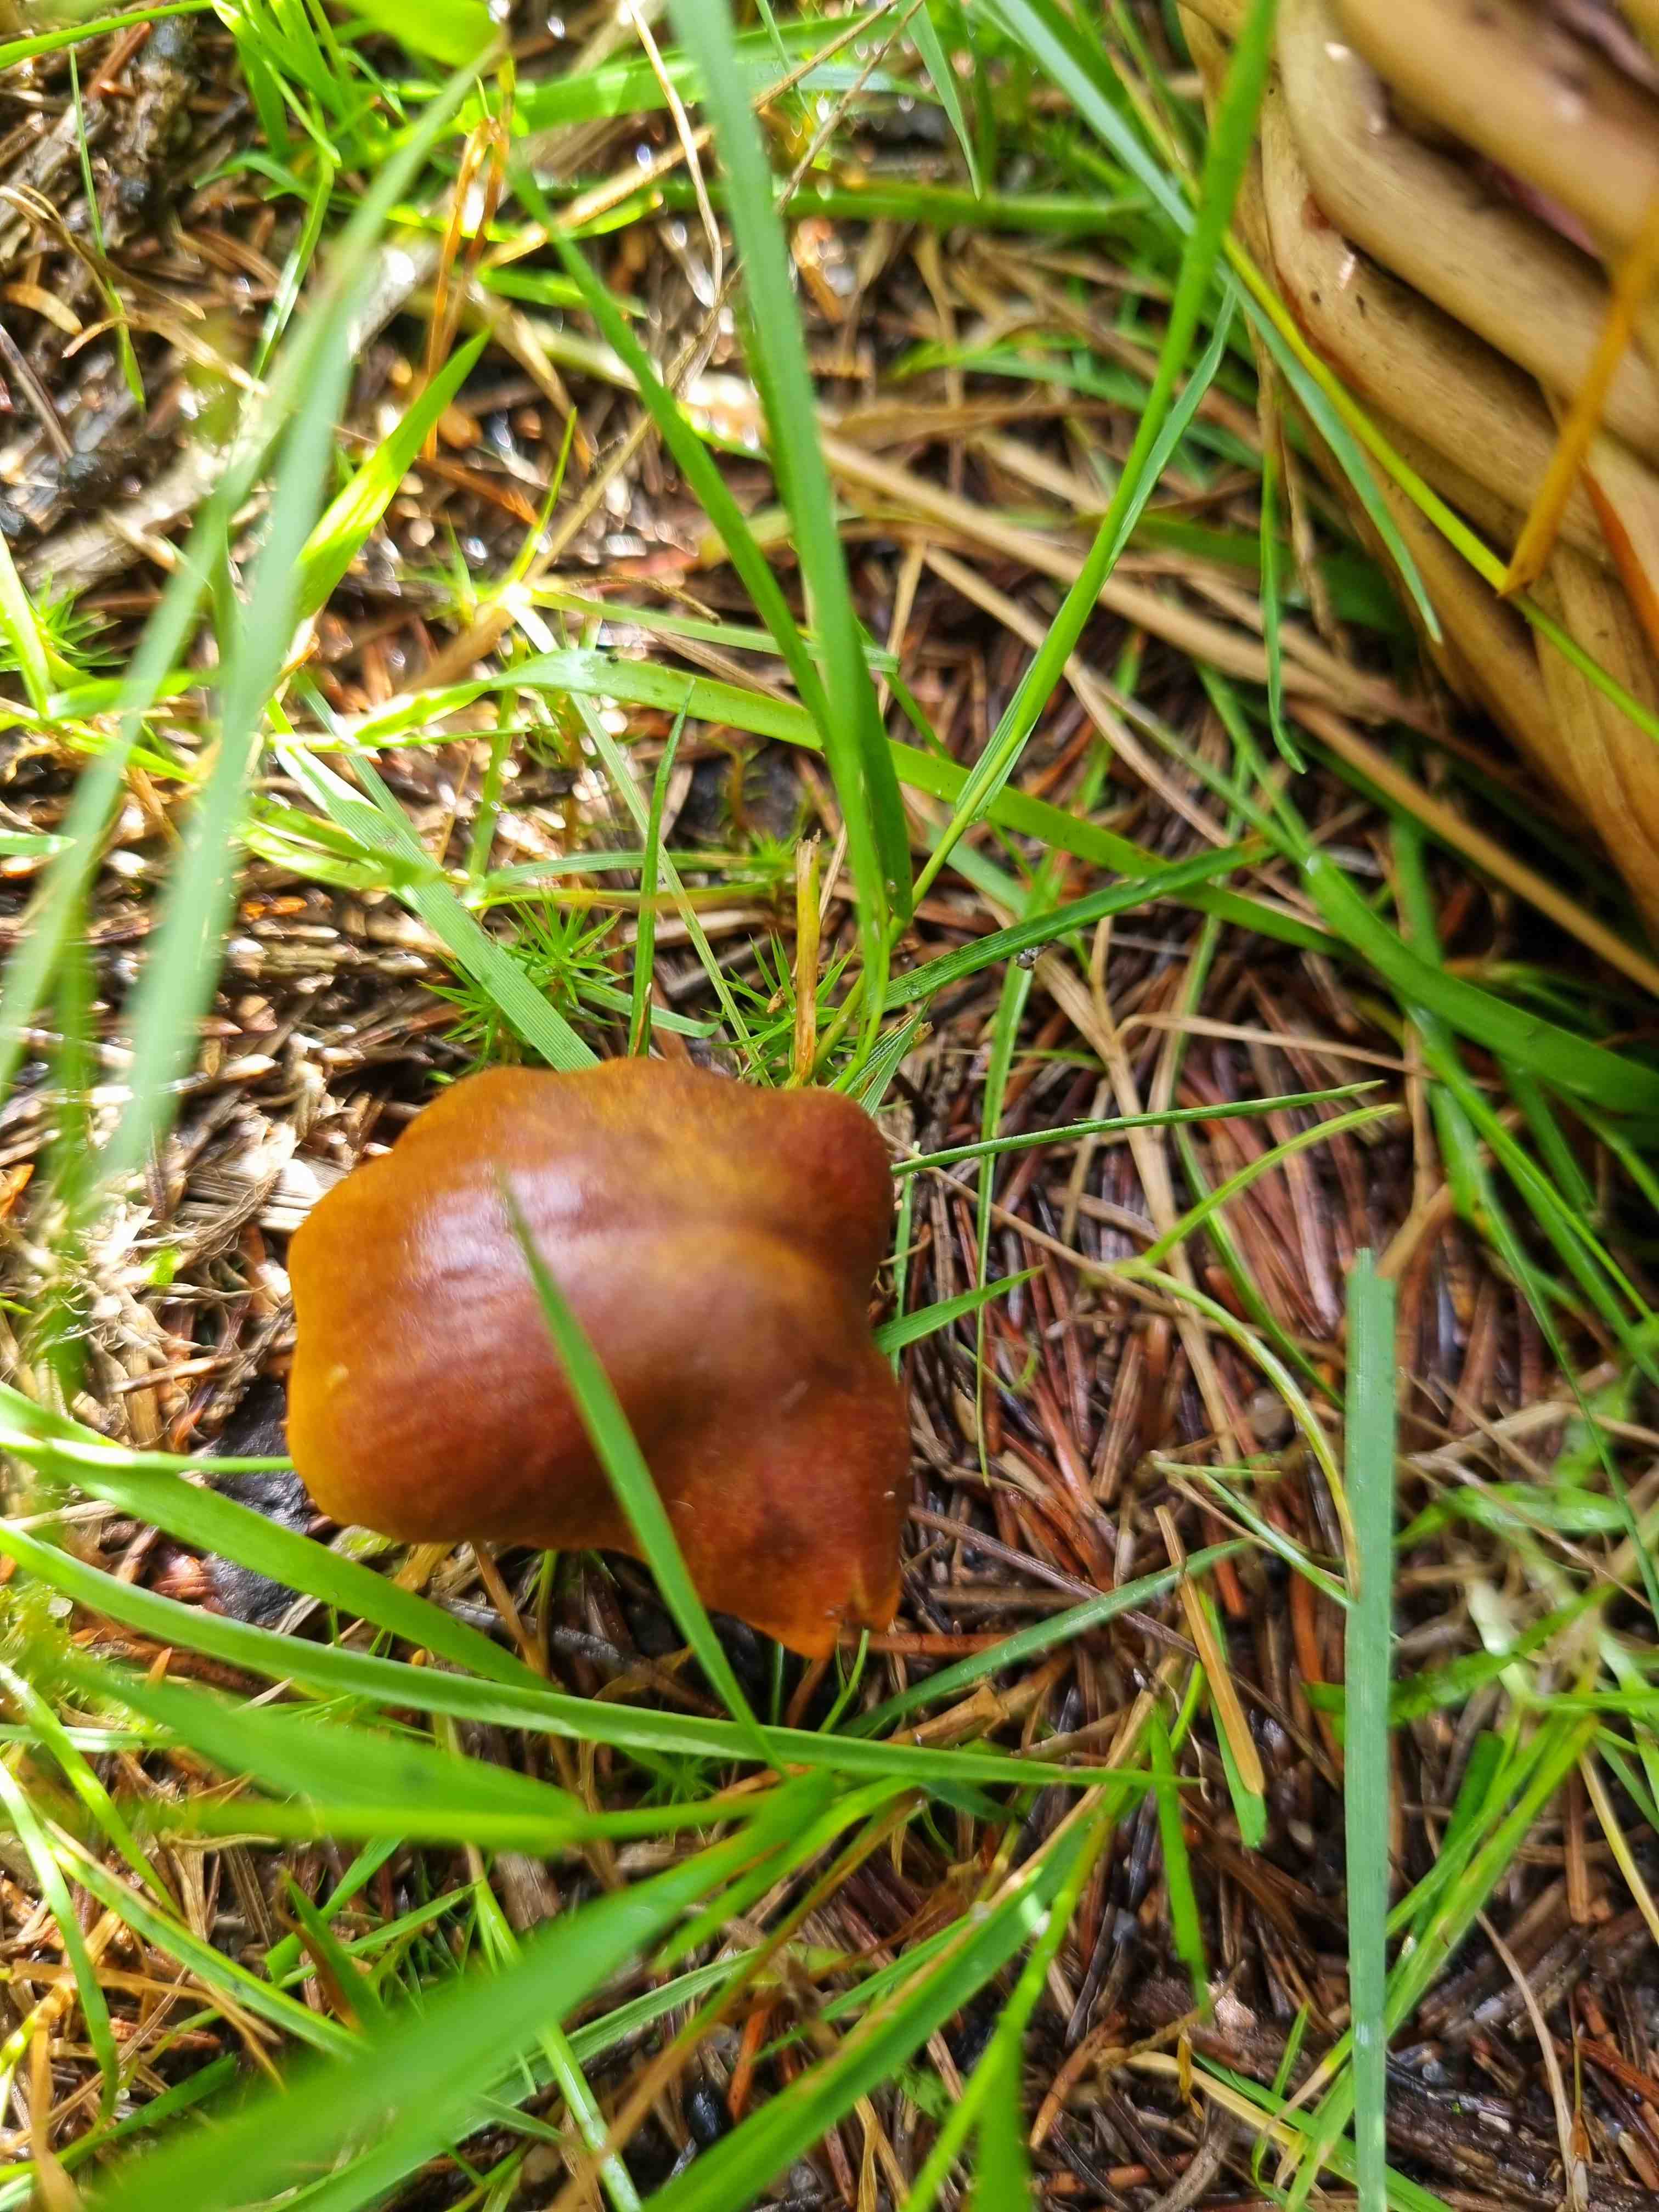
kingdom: Fungi
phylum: Basidiomycota
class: Agaricomycetes
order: Agaricales
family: Cortinariaceae
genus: Cortinarius
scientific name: Cortinarius malicorius
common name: grønkødet slørhat
